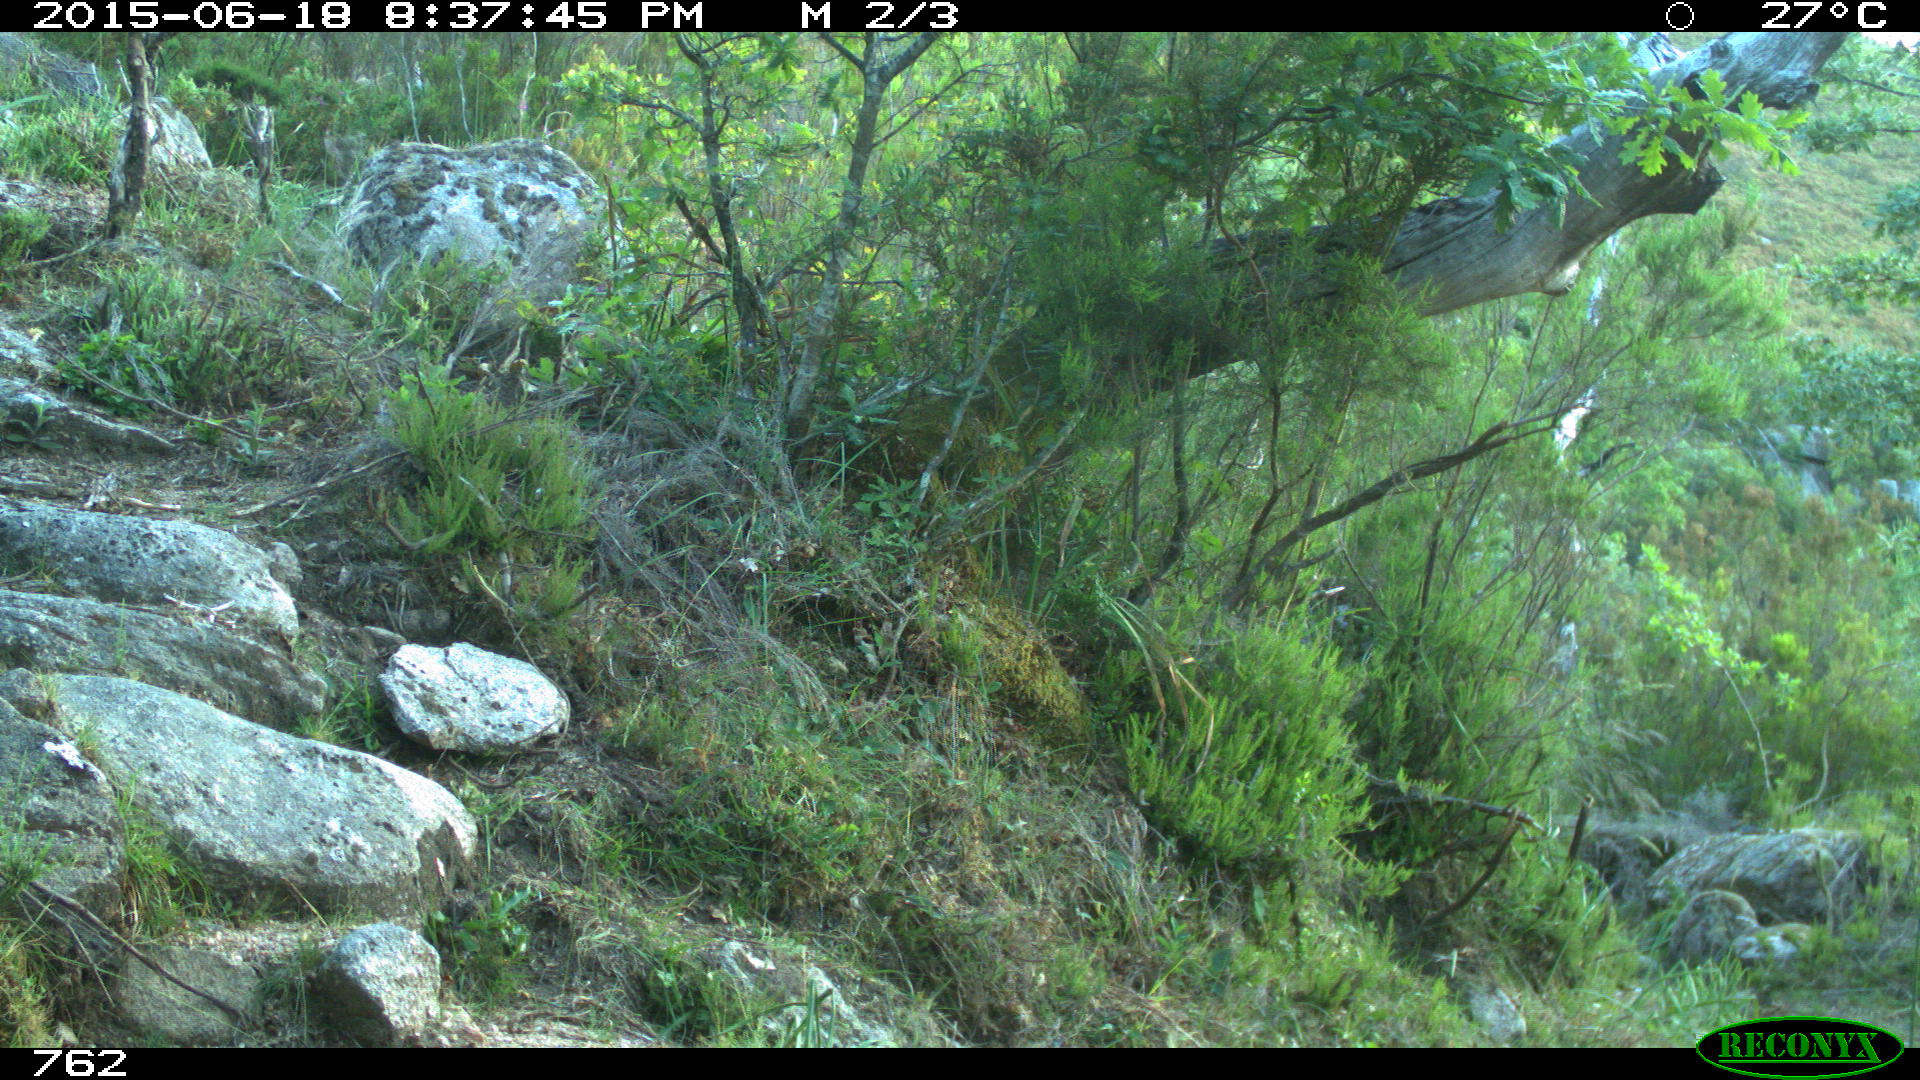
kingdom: Animalia
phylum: Chordata
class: Mammalia
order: Artiodactyla
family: Bovidae
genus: Bos
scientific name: Bos taurus
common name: Domesticated cattle
